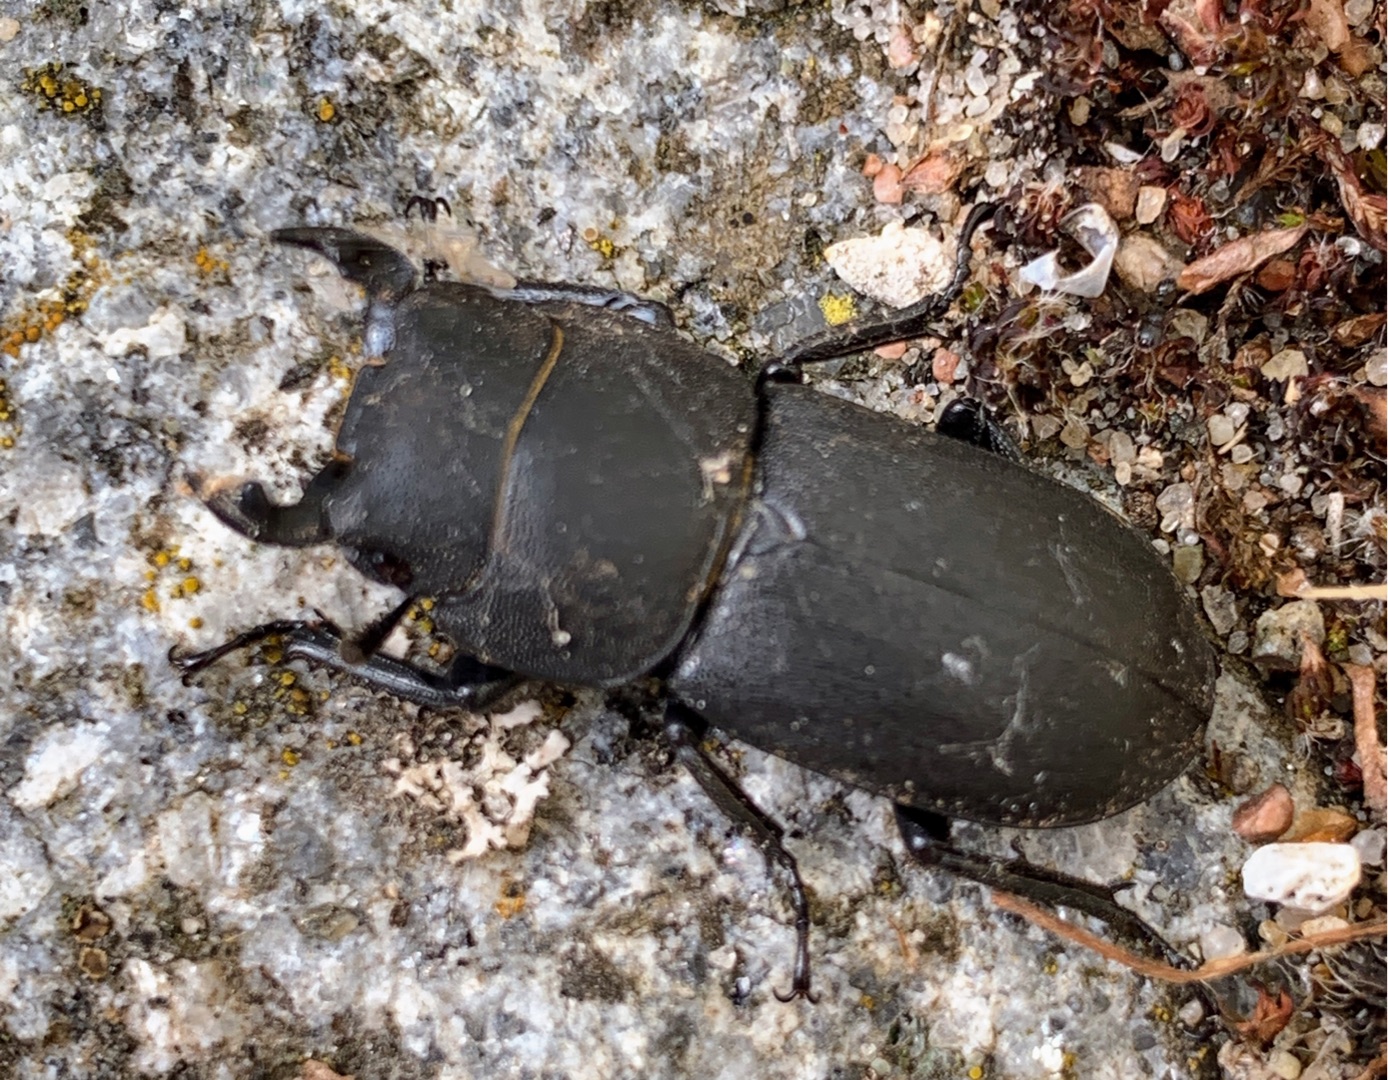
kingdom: Animalia
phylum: Arthropoda
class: Insecta
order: Coleoptera
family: Lucanidae
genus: Dorcus
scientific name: Dorcus parallelipipedus
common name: Bøghjort
